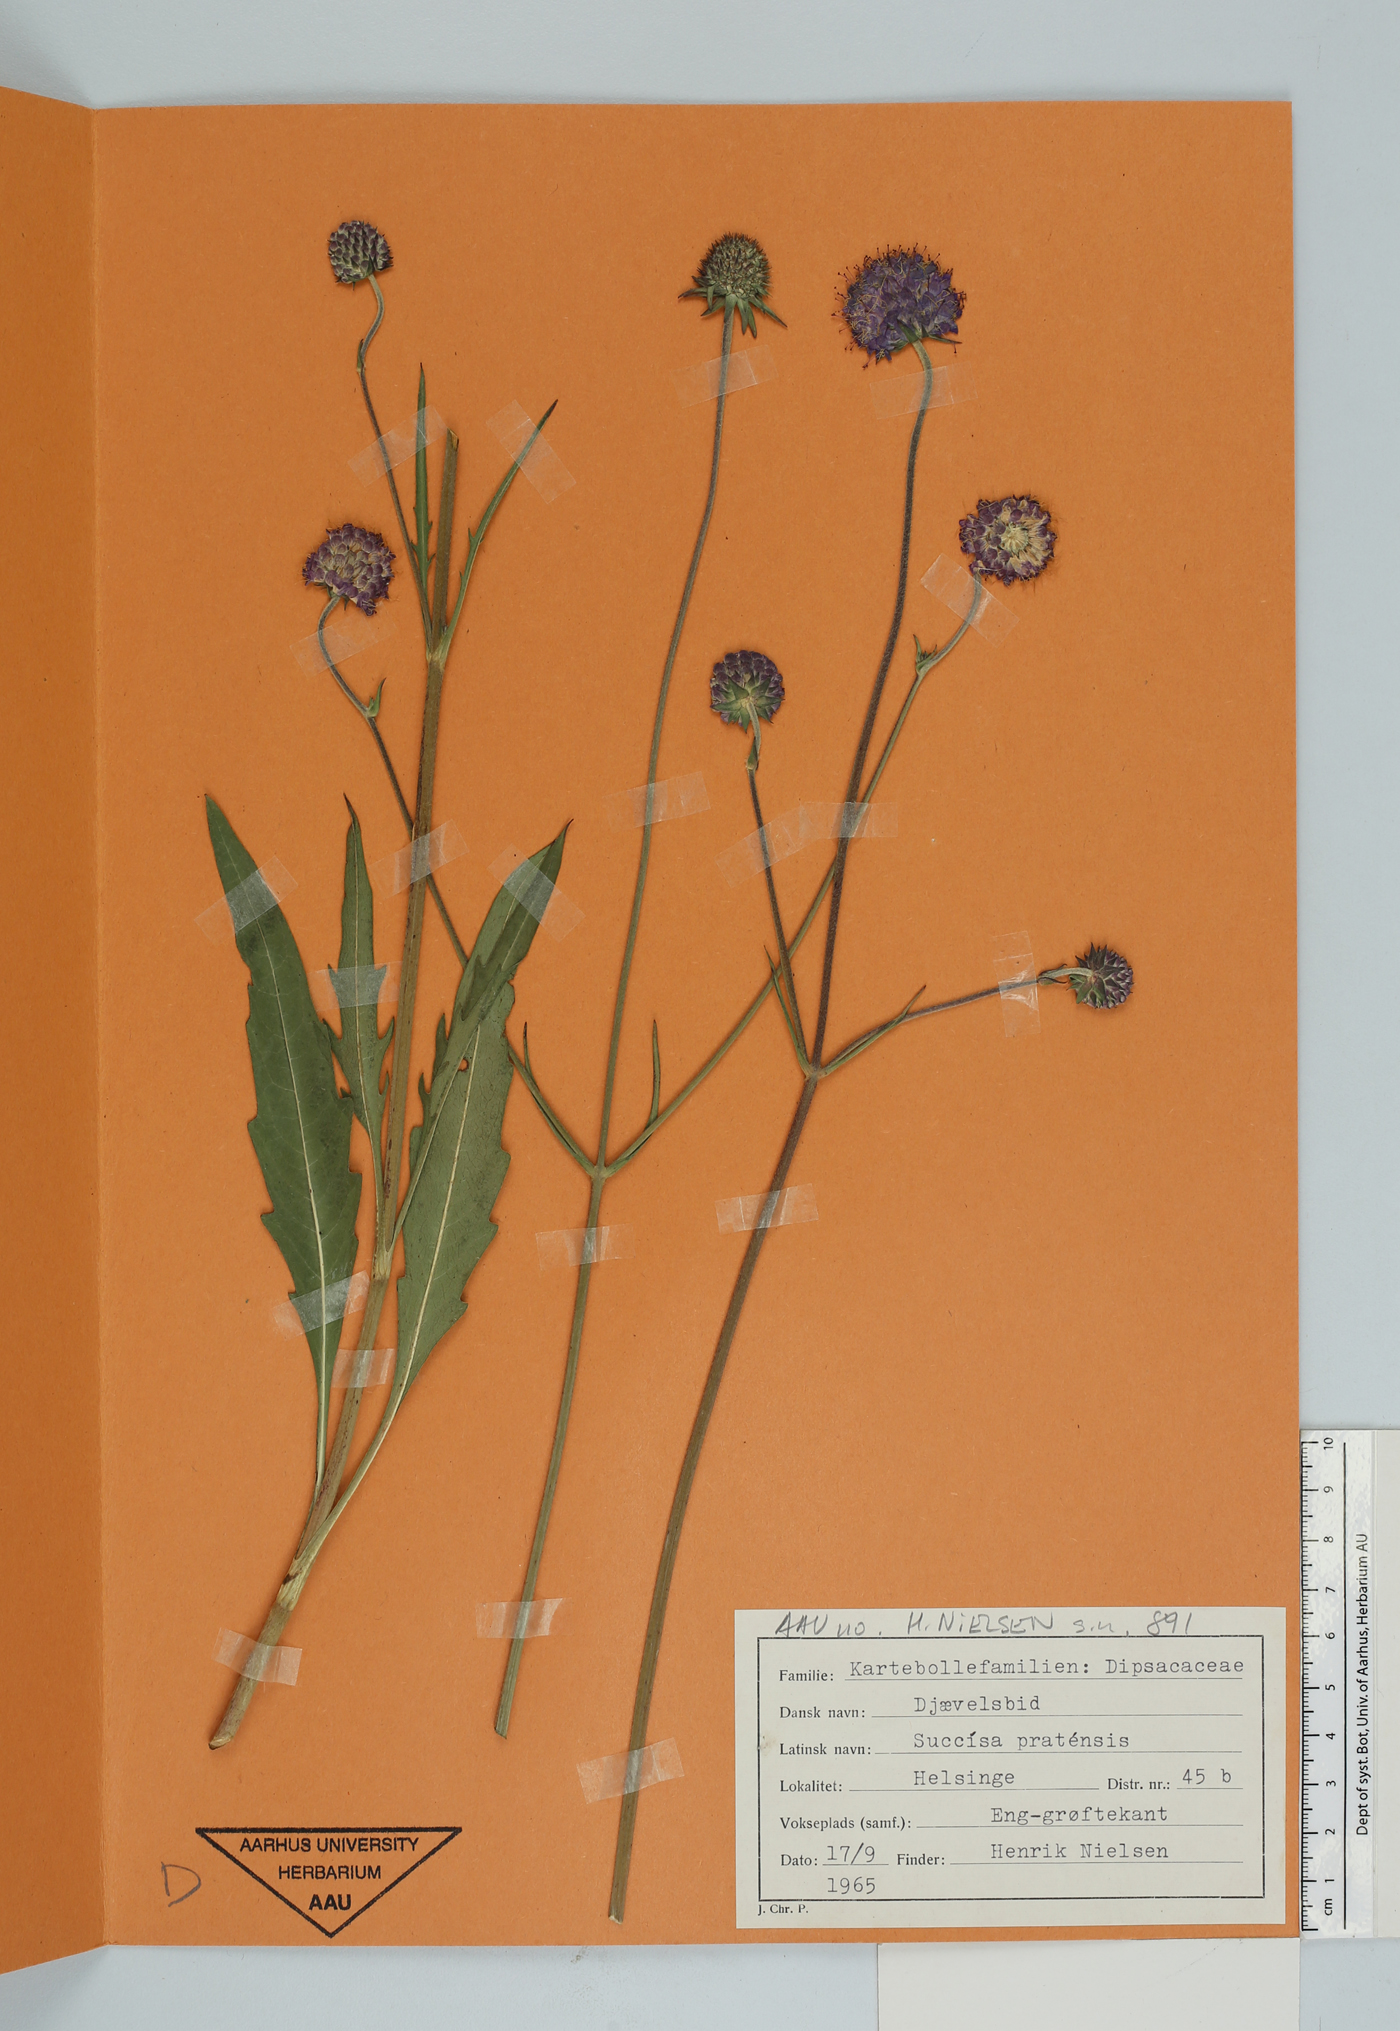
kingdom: Plantae
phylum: Tracheophyta
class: Magnoliopsida
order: Dipsacales
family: Caprifoliaceae
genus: Succisa
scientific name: Succisa pratensis
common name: Devil's-bit
